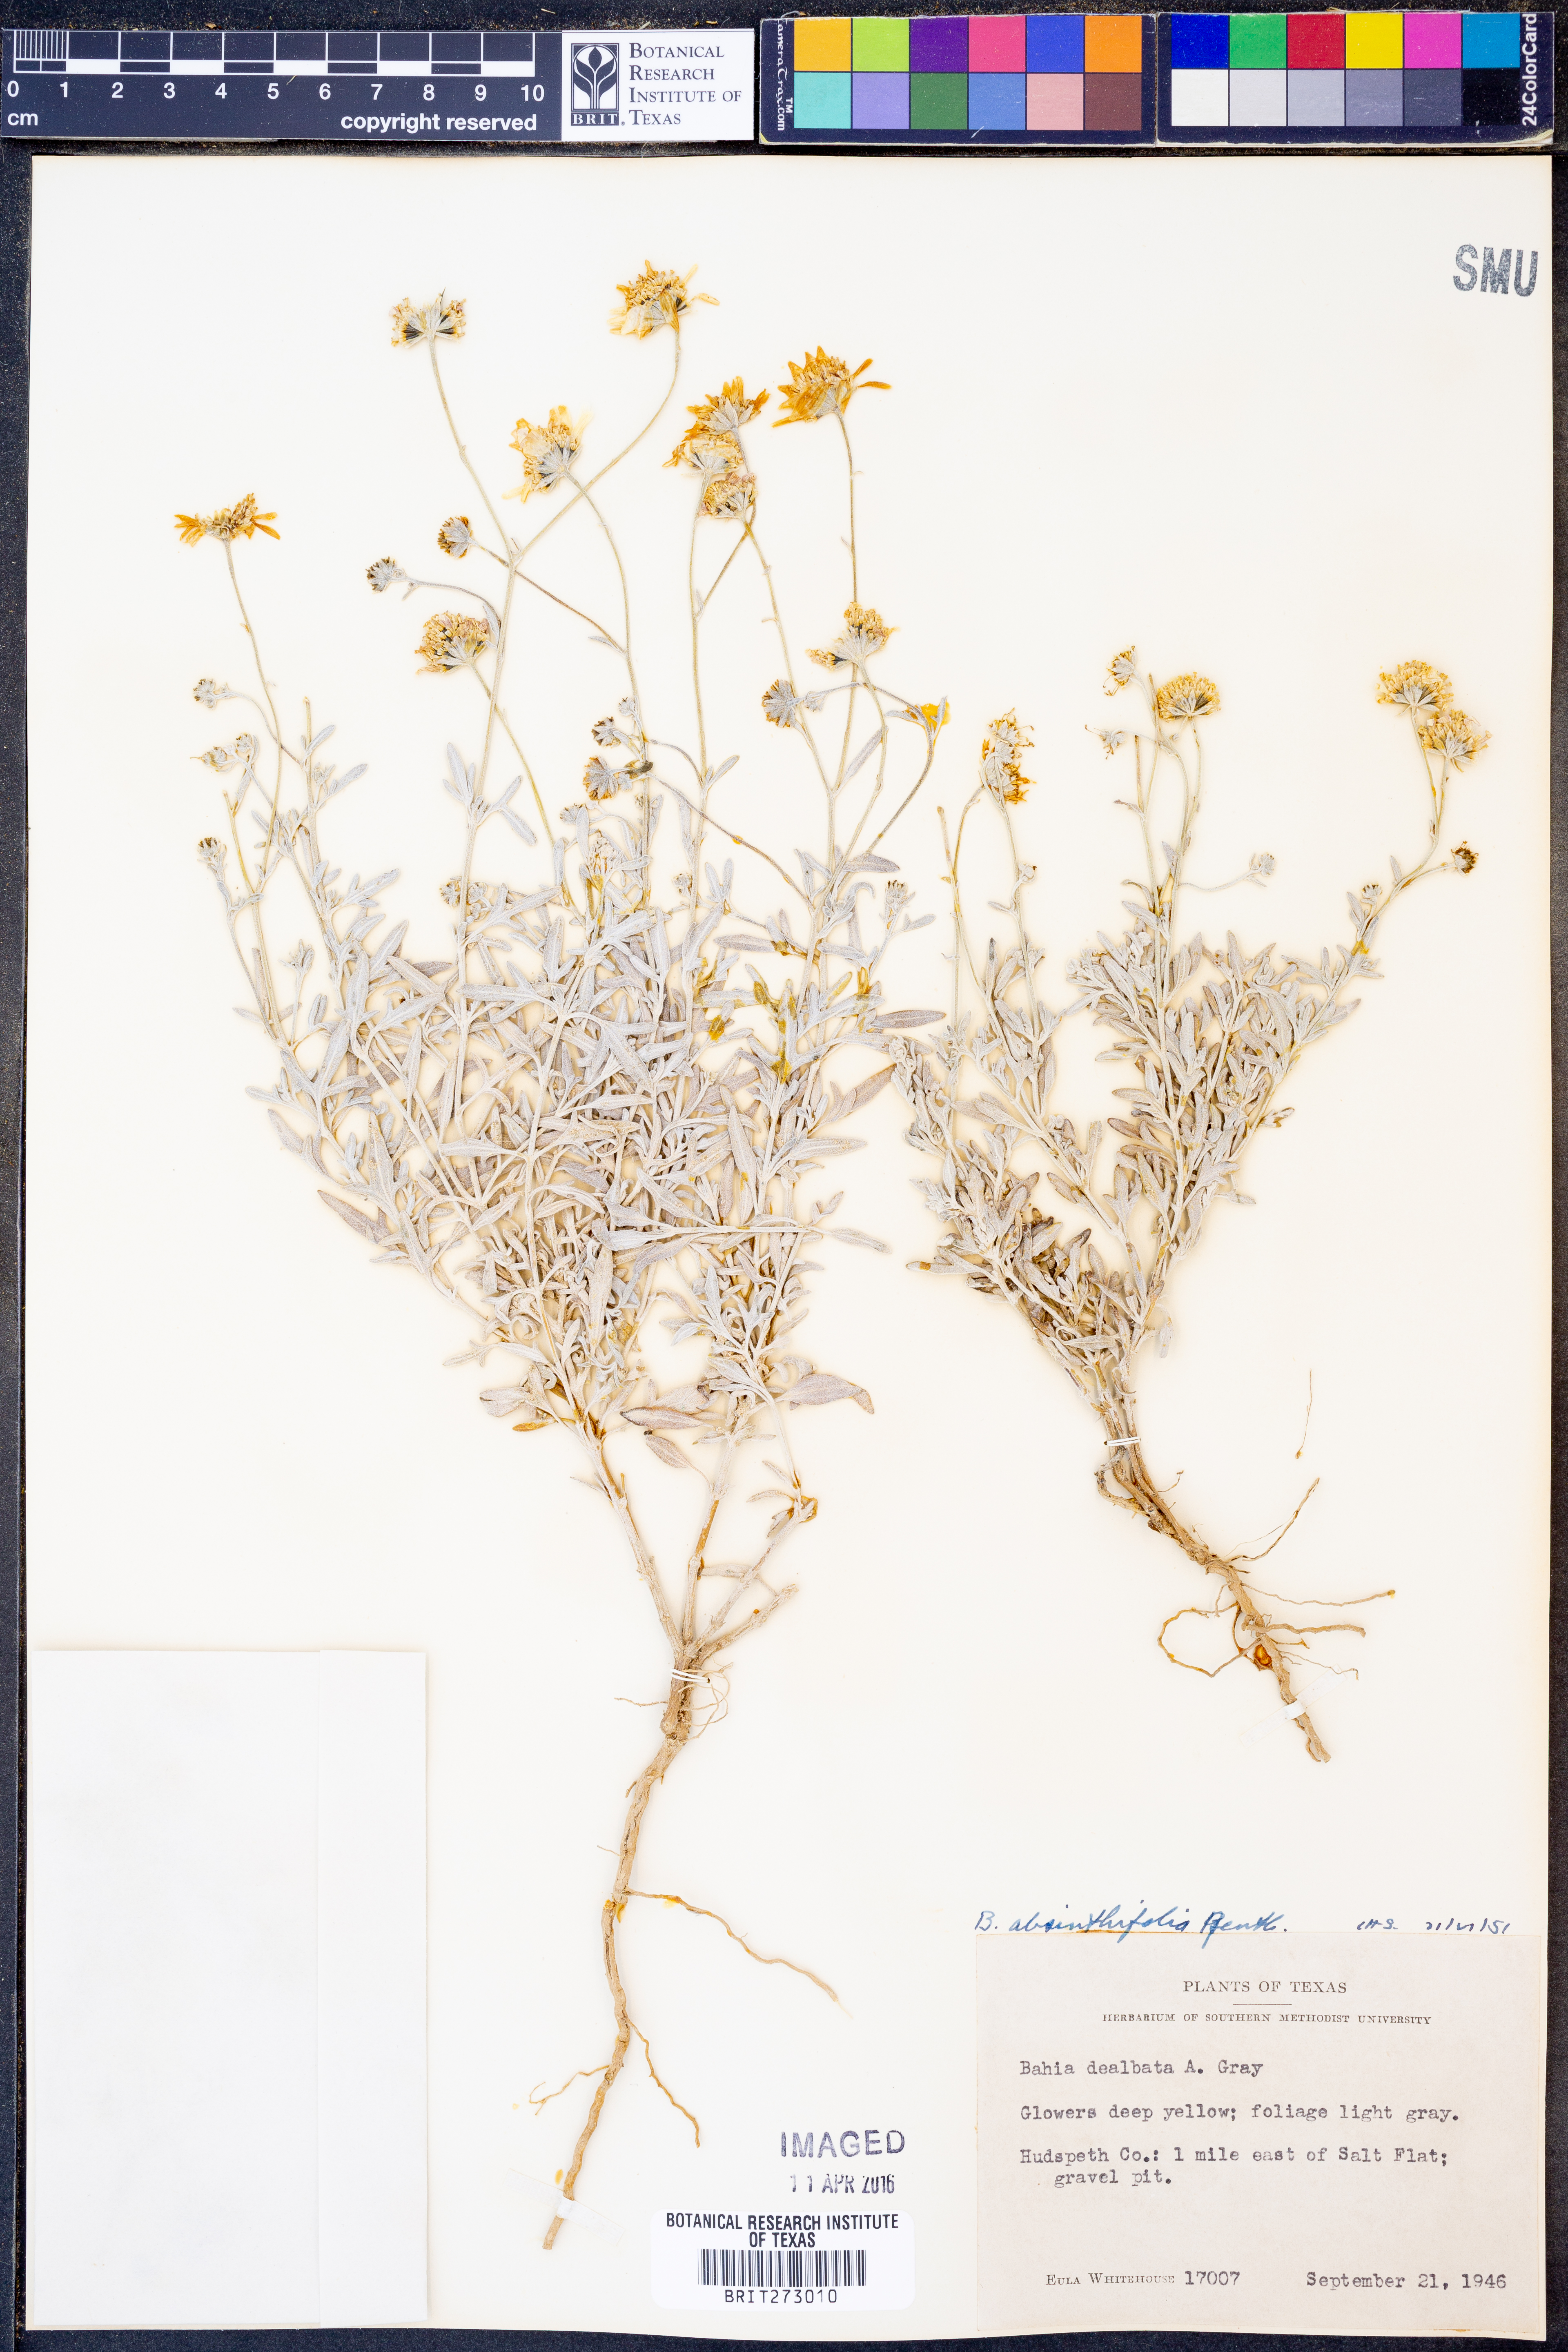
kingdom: Plantae
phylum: Tracheophyta
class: Magnoliopsida
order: Asterales
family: Asteraceae
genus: Picradeniopsis
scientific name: Picradeniopsis absinthifolia
